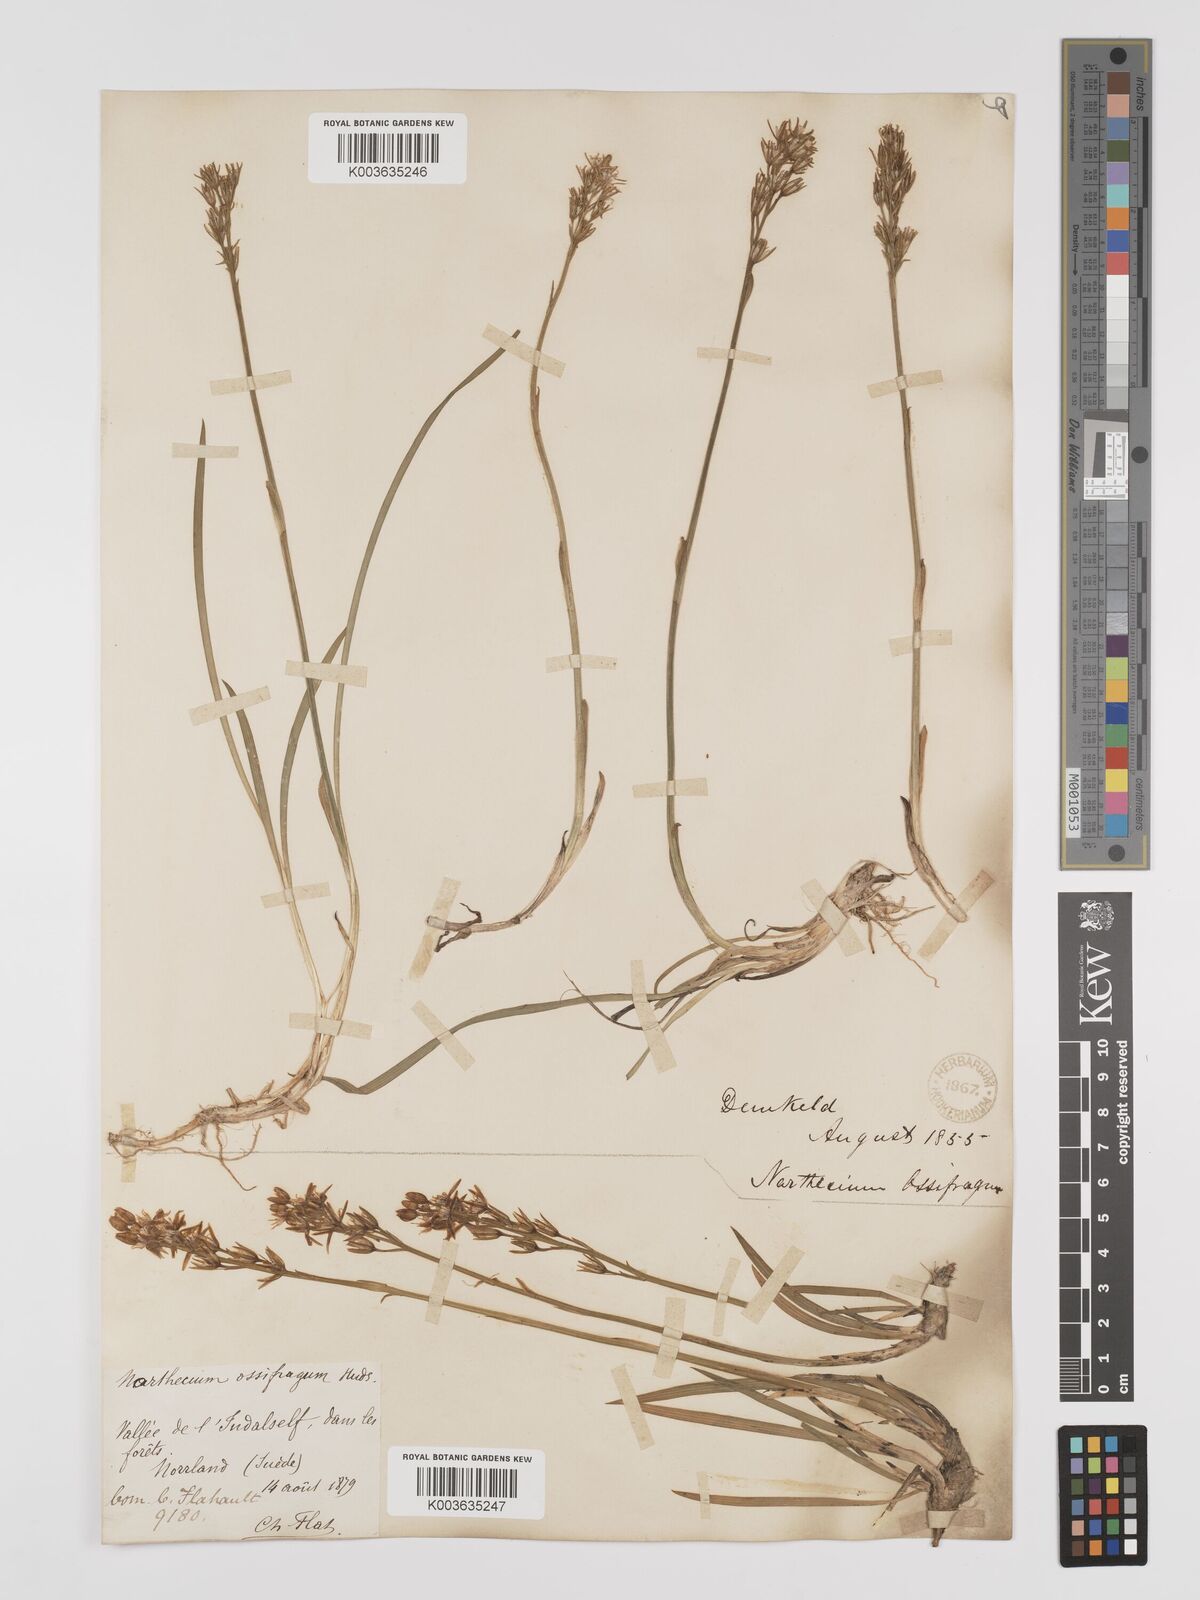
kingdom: Plantae
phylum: Tracheophyta
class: Liliopsida
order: Dioscoreales
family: Nartheciaceae
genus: Narthecium
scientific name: Narthecium
